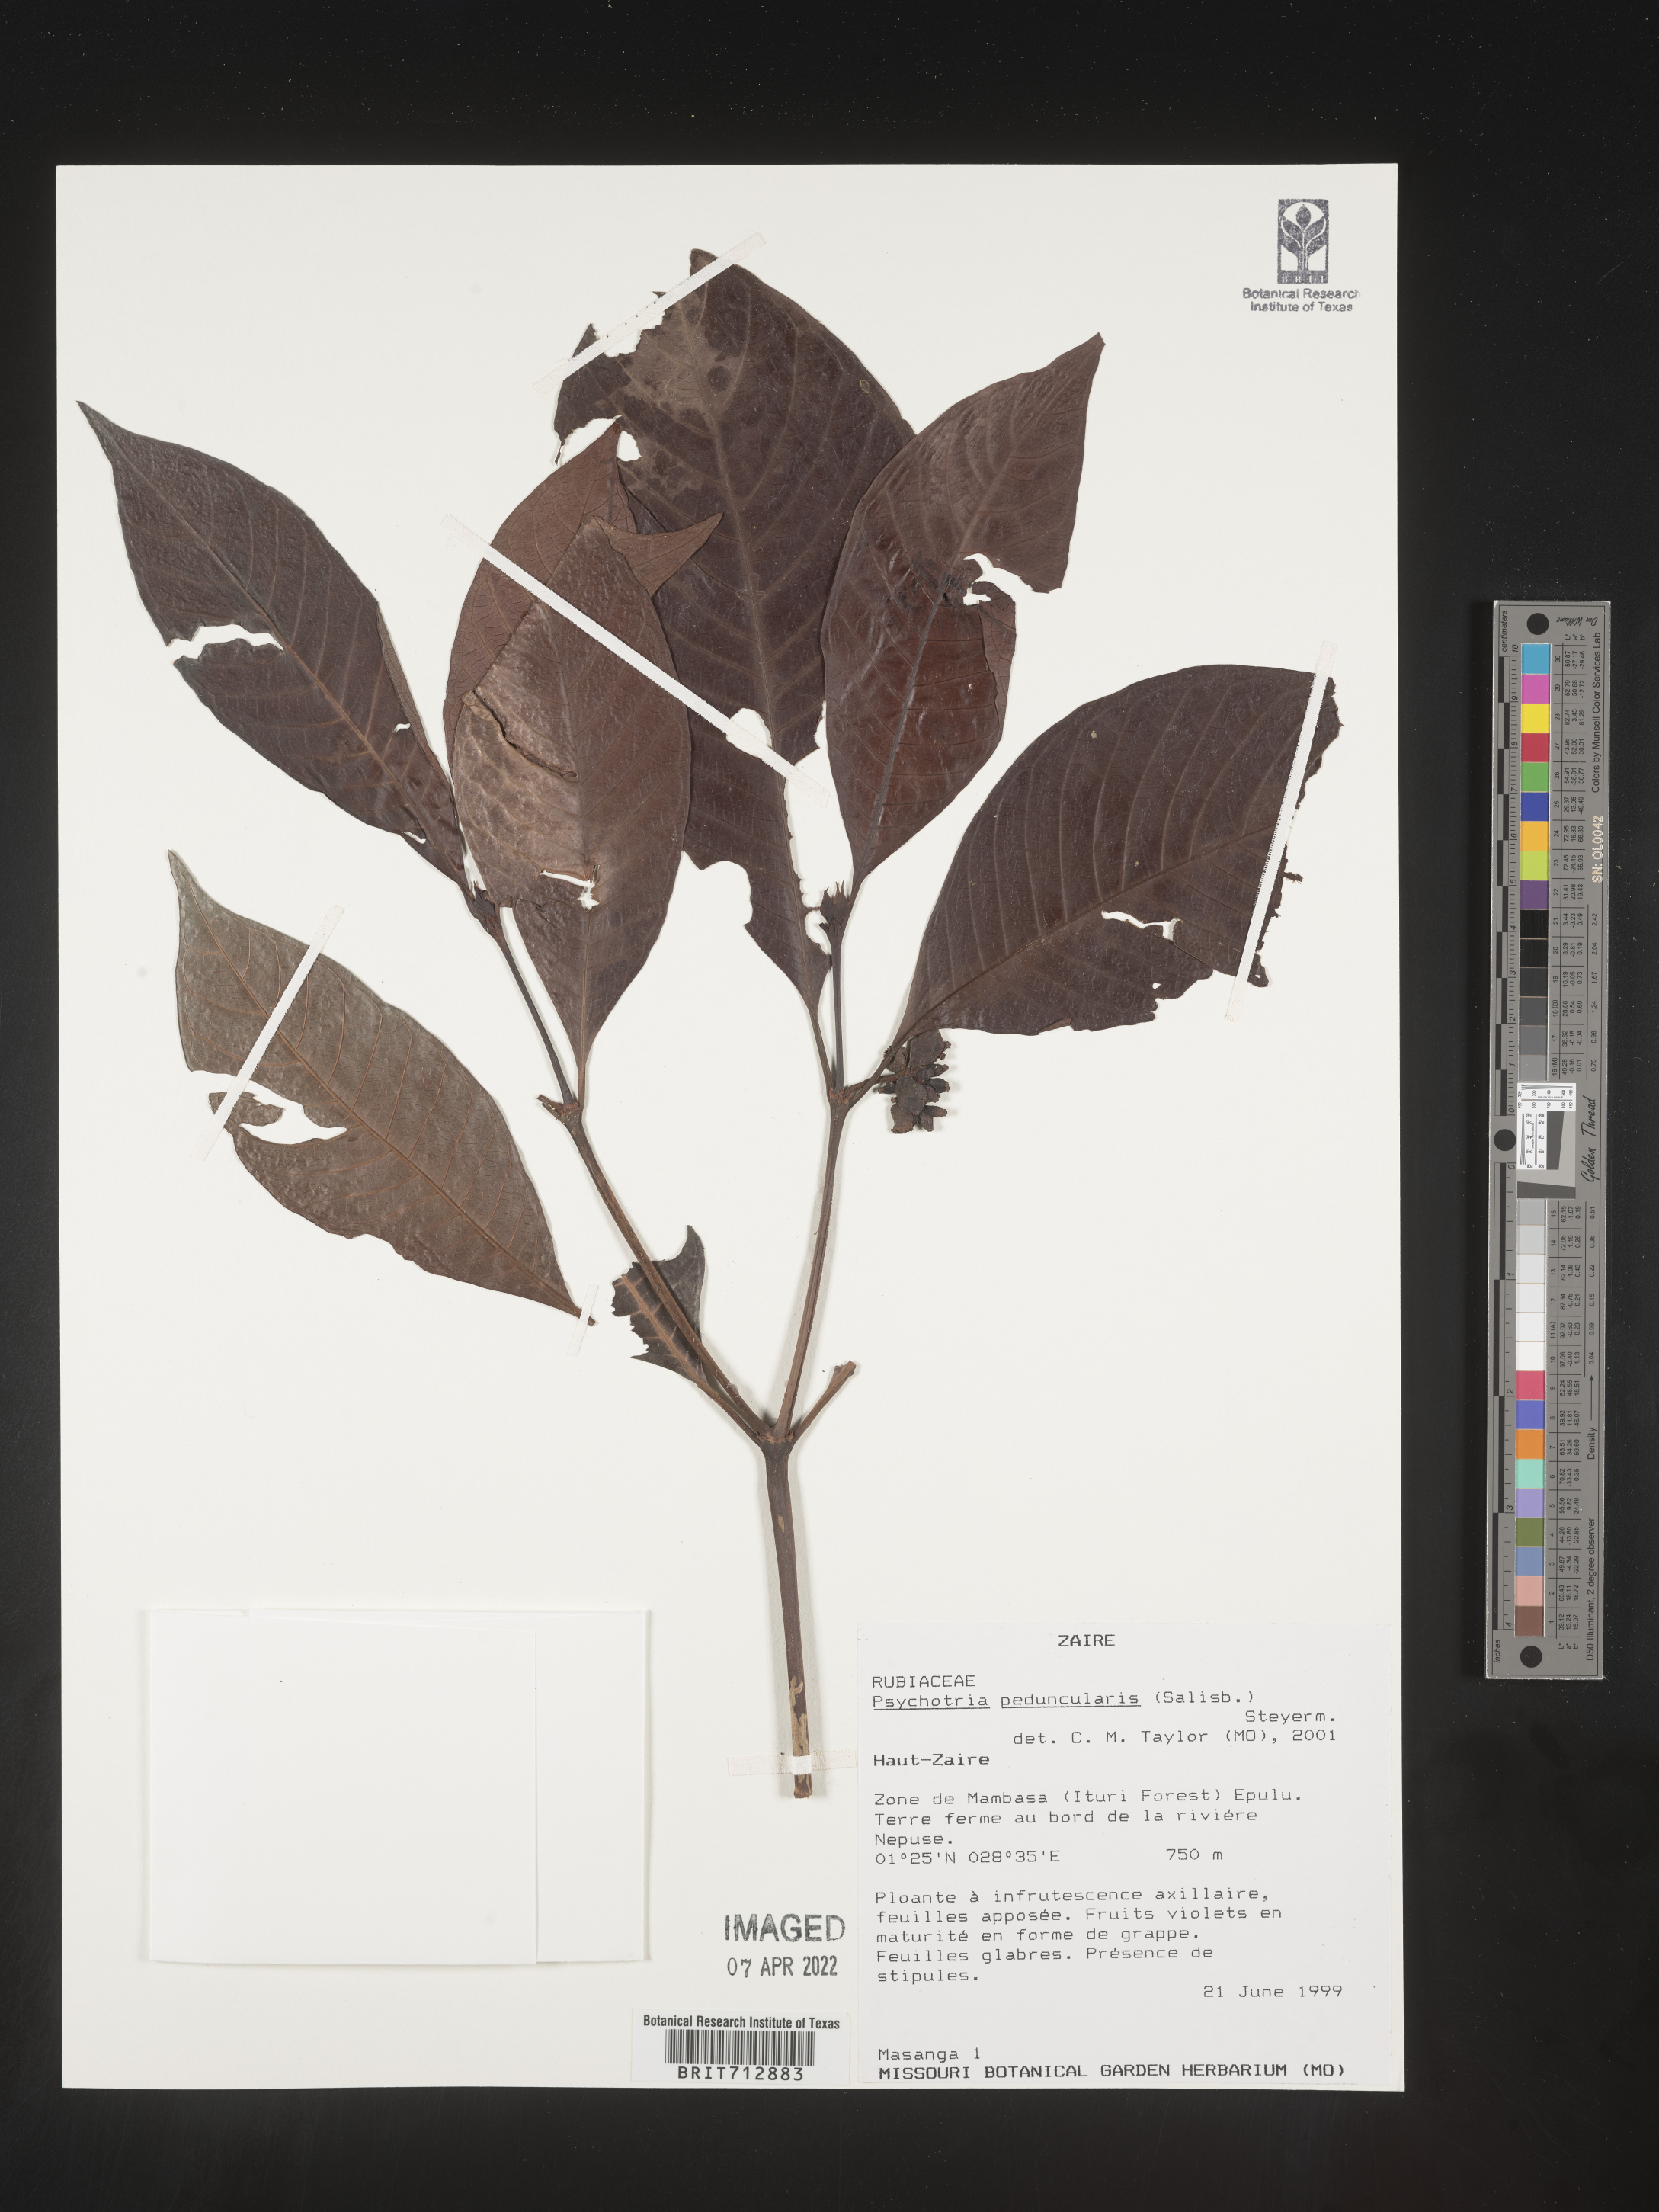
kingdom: Plantae
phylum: Tracheophyta
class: Magnoliopsida
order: Gentianales
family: Rubiaceae
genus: Psychotria
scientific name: Psychotria
